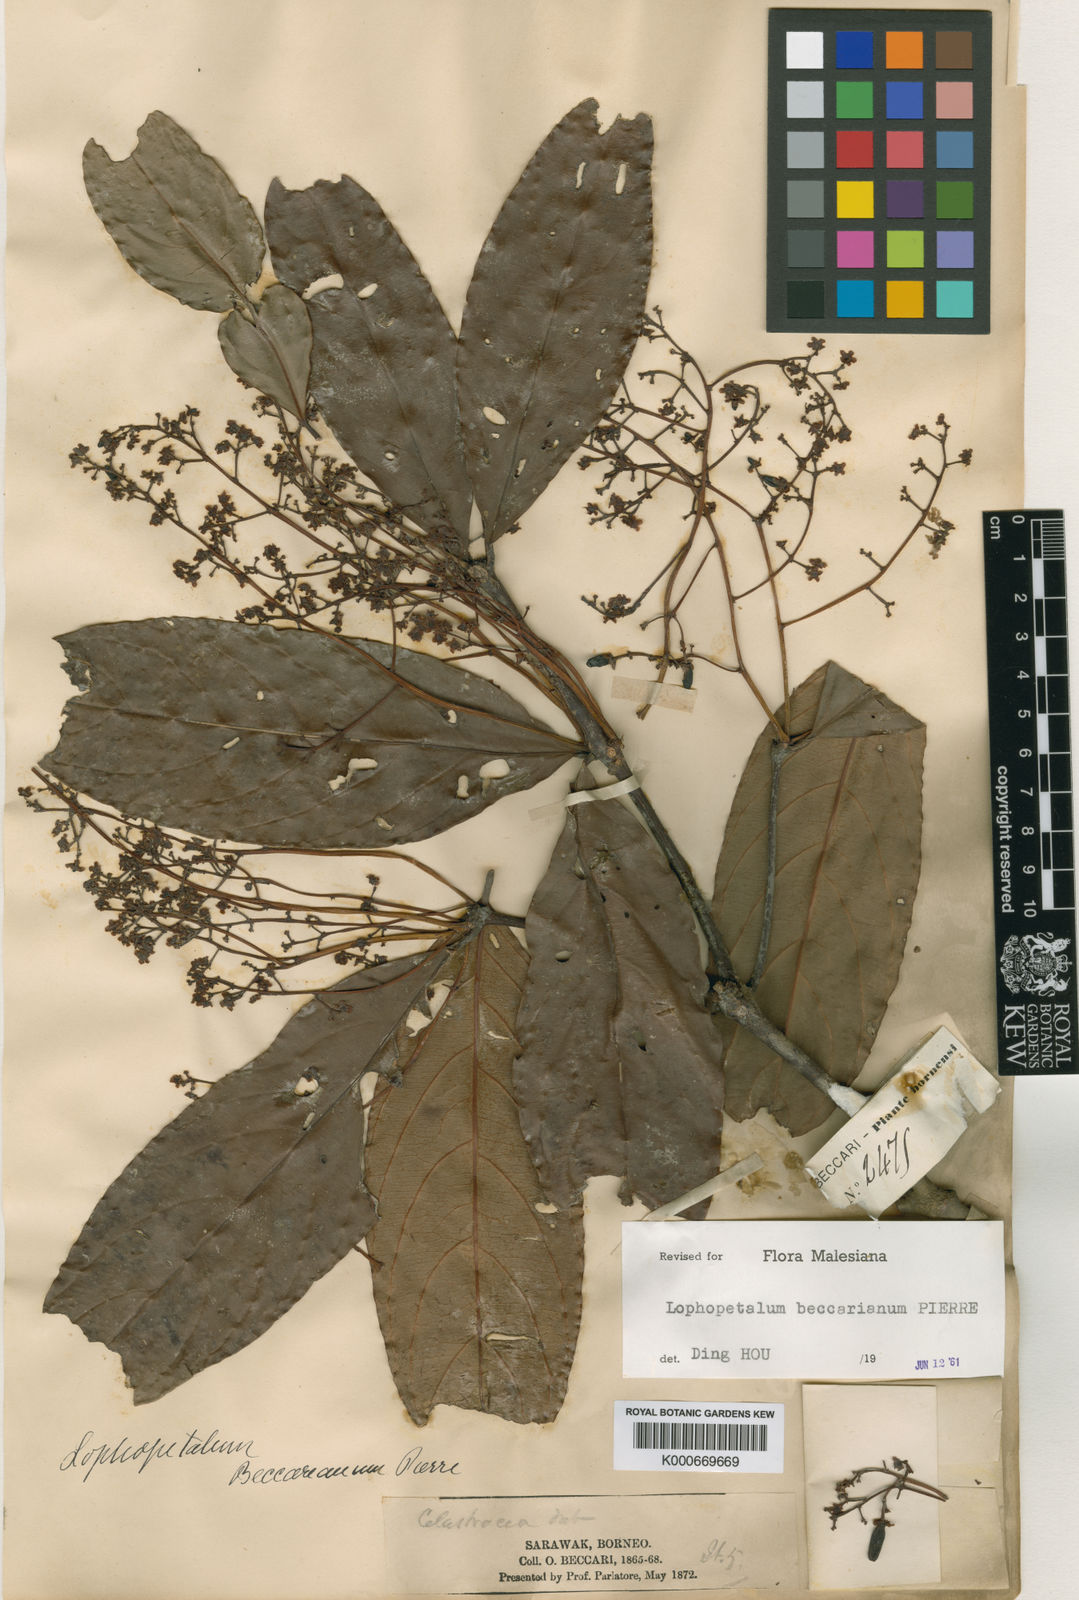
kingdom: Plantae
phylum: Tracheophyta
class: Magnoliopsida
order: Celastrales
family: Celastraceae
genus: Lophopetalum
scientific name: Lophopetalum beccarianum
